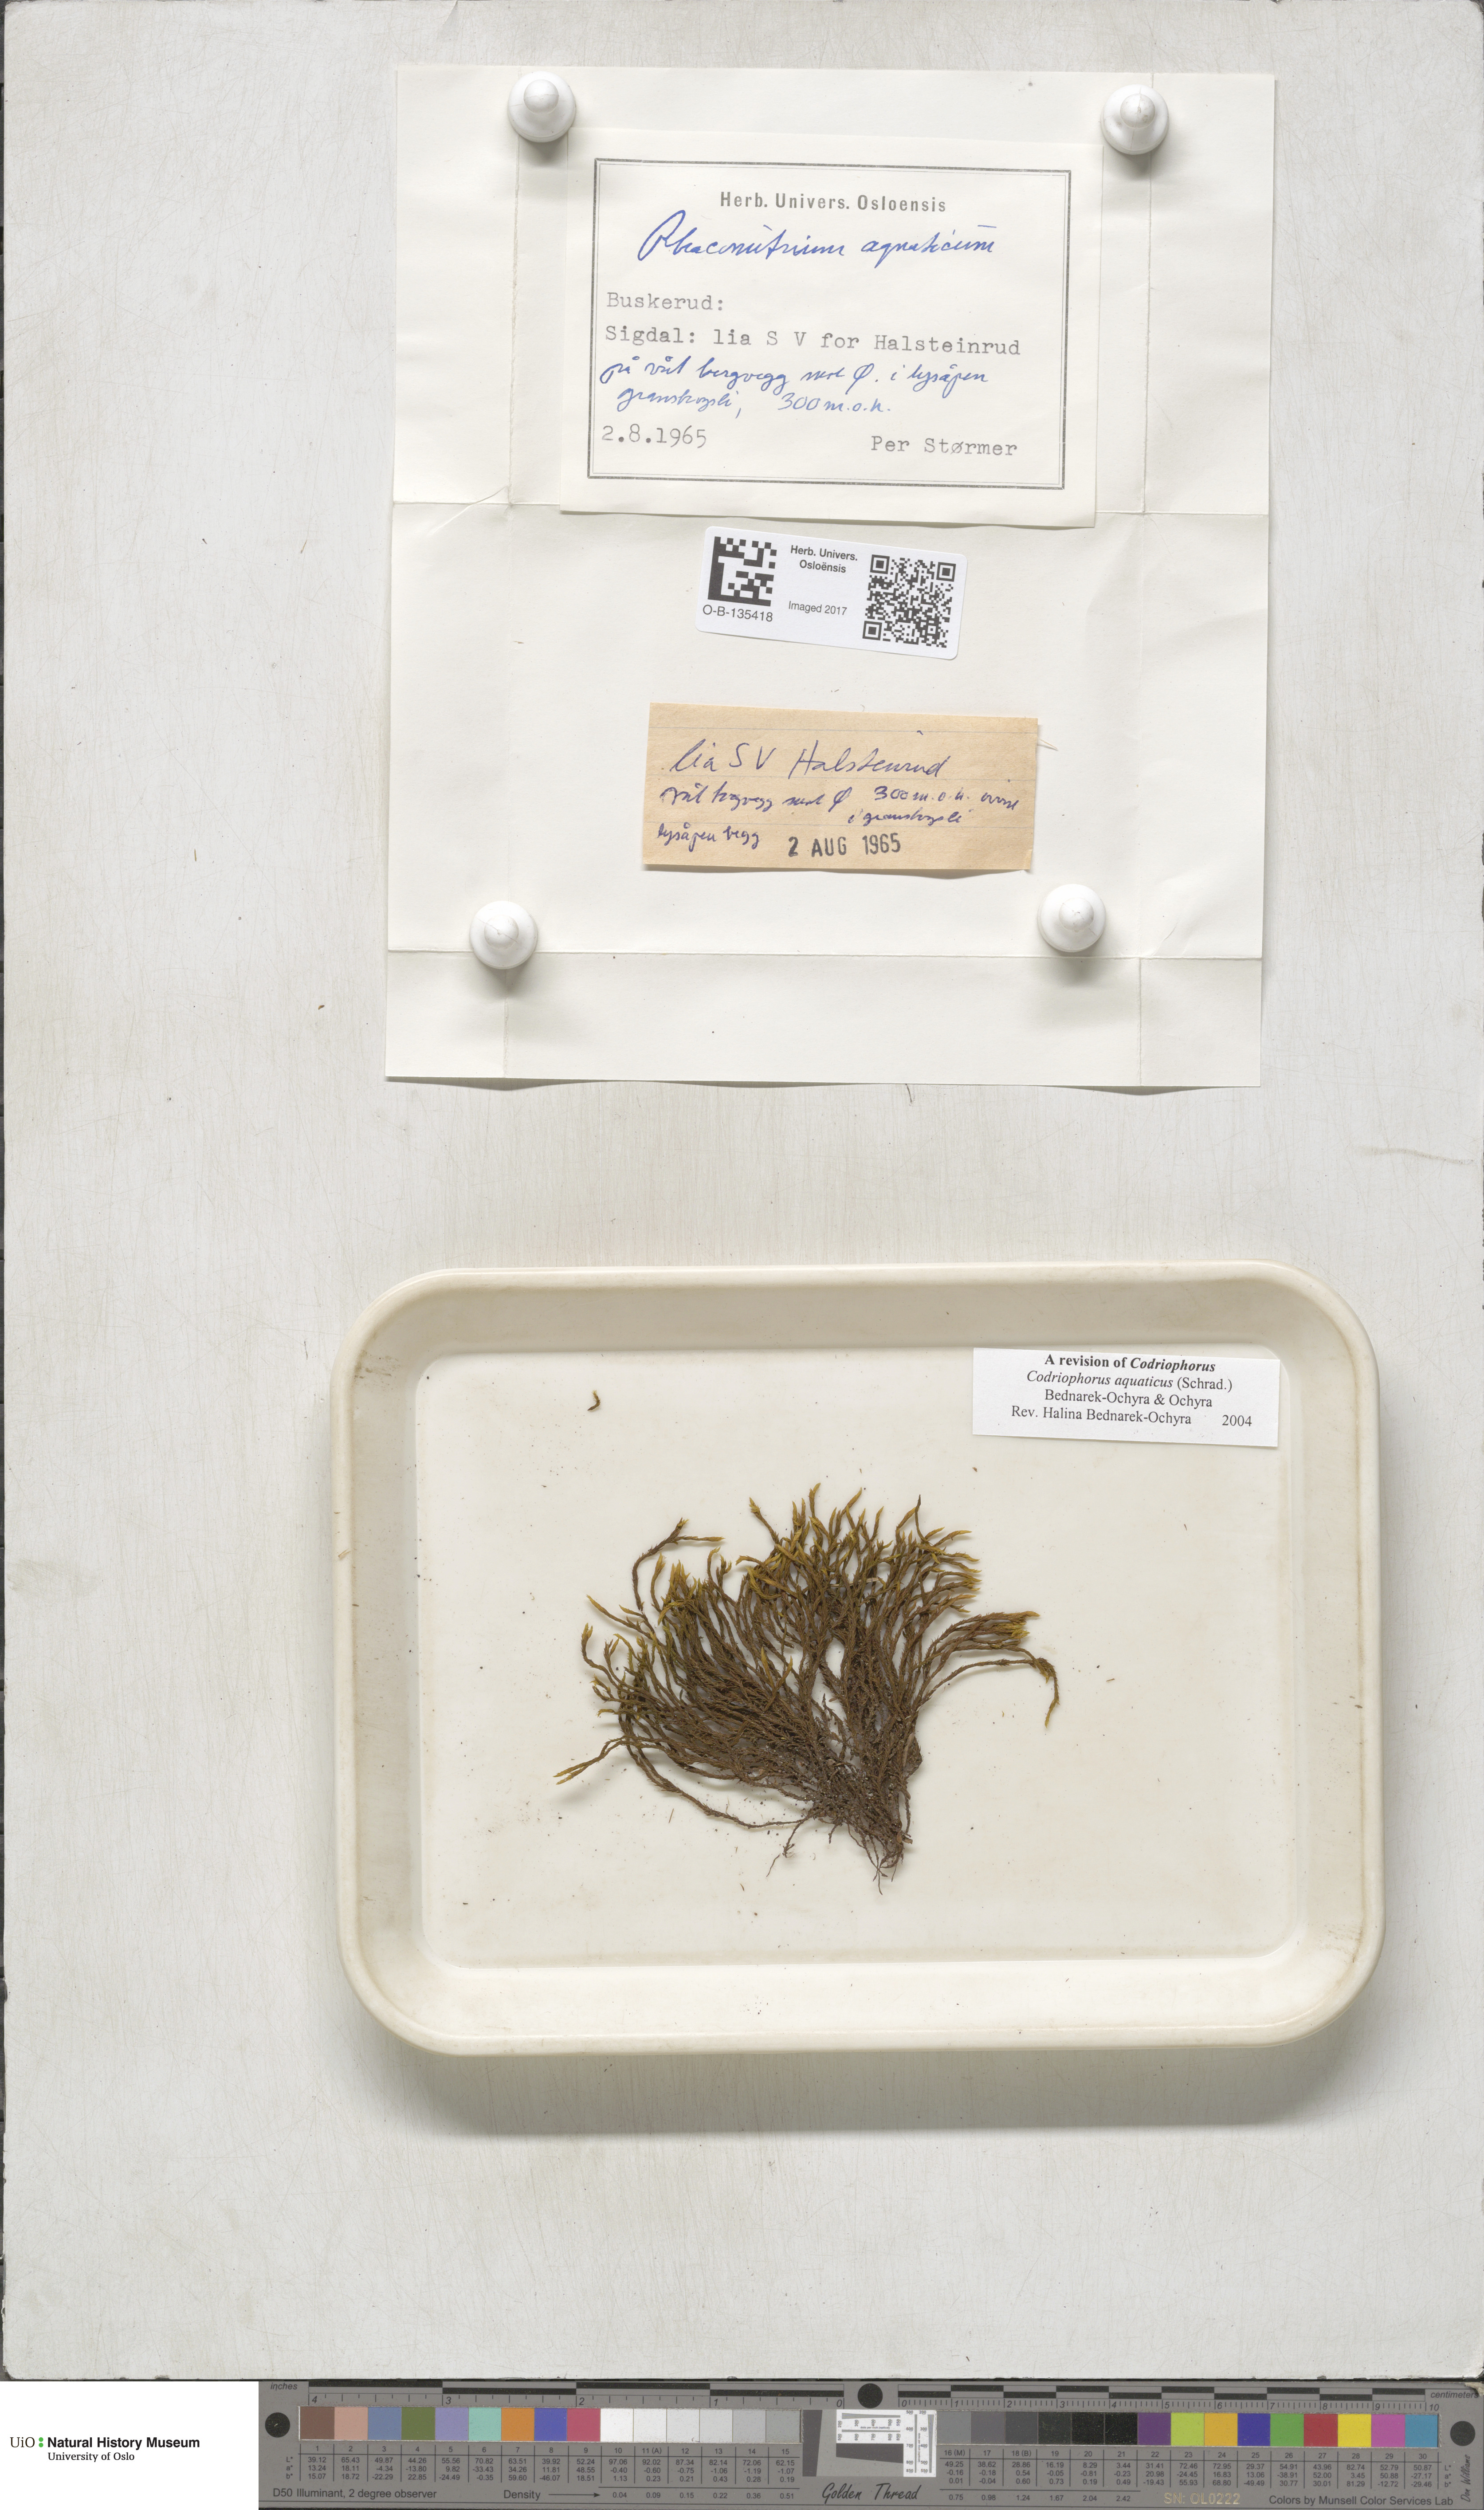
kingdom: Plantae
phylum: Bryophyta
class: Bryopsida
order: Grimmiales
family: Grimmiaceae
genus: Codriophorus
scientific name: Codriophorus aquaticus
